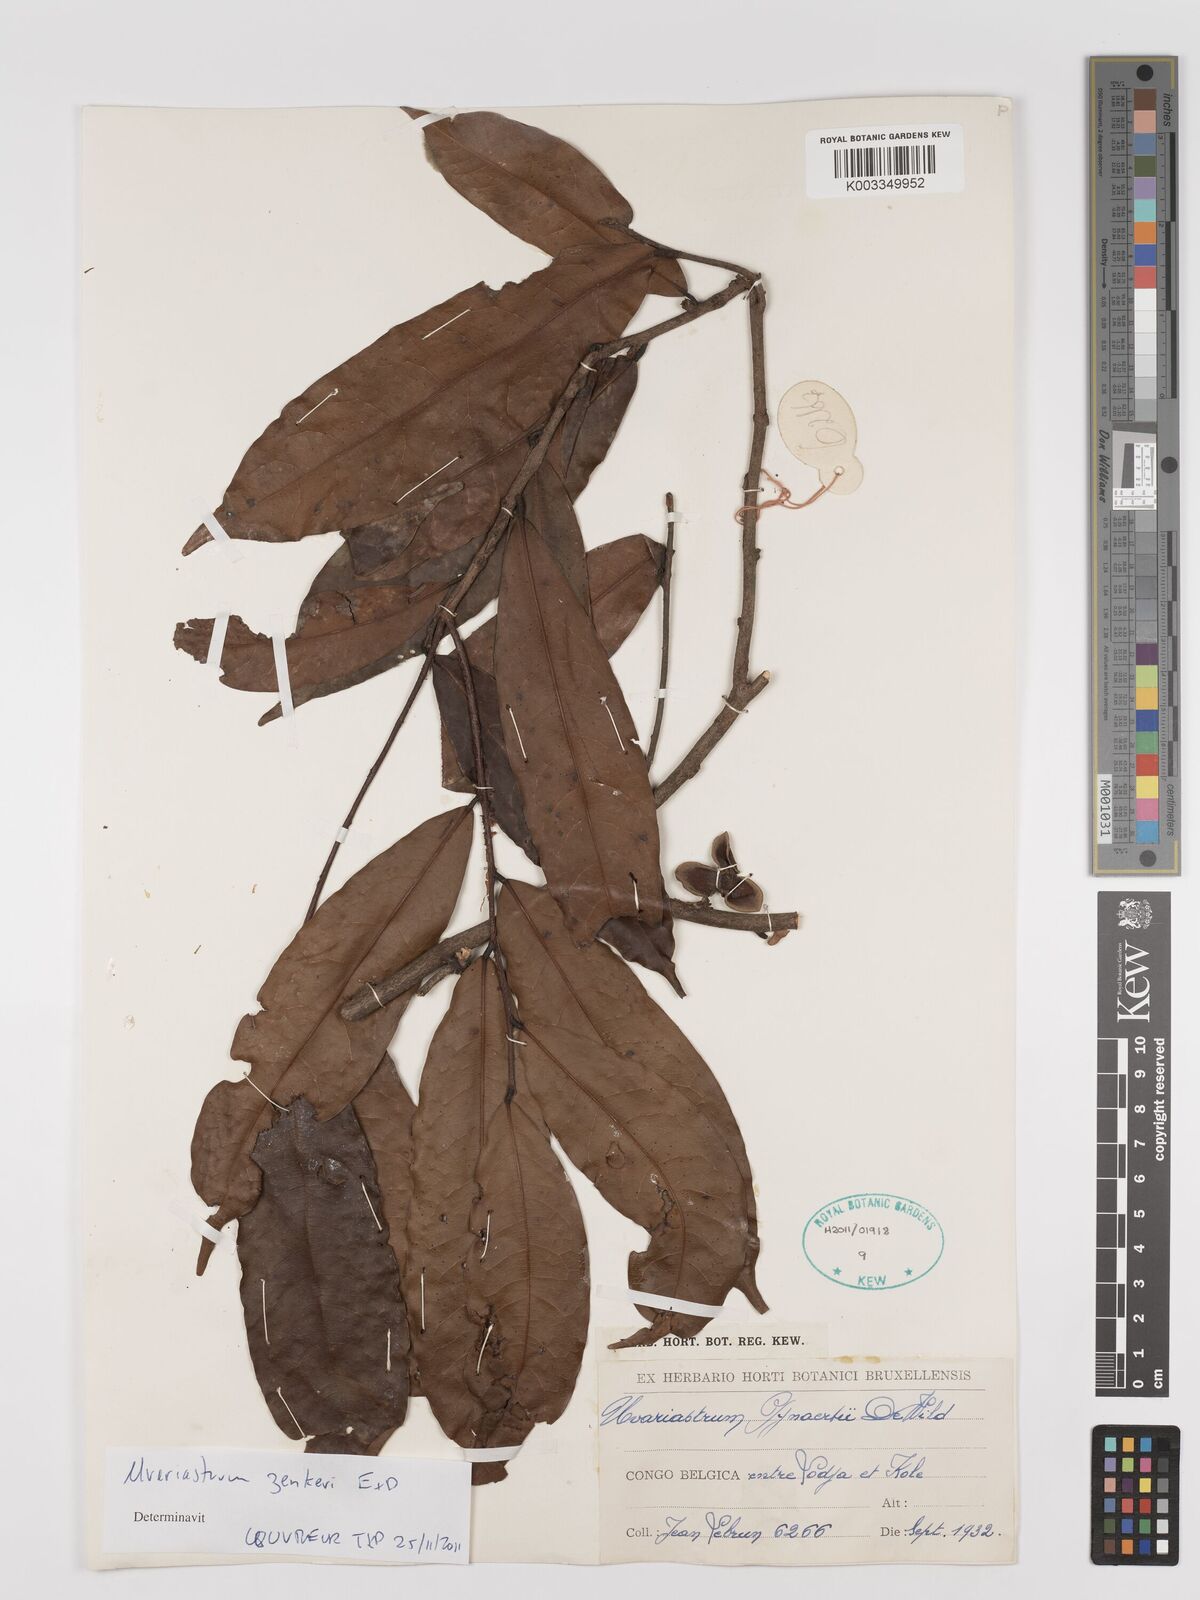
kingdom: Plantae
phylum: Tracheophyta
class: Magnoliopsida
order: Magnoliales
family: Annonaceae
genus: Uvariastrum
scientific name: Uvariastrum zenkeri
